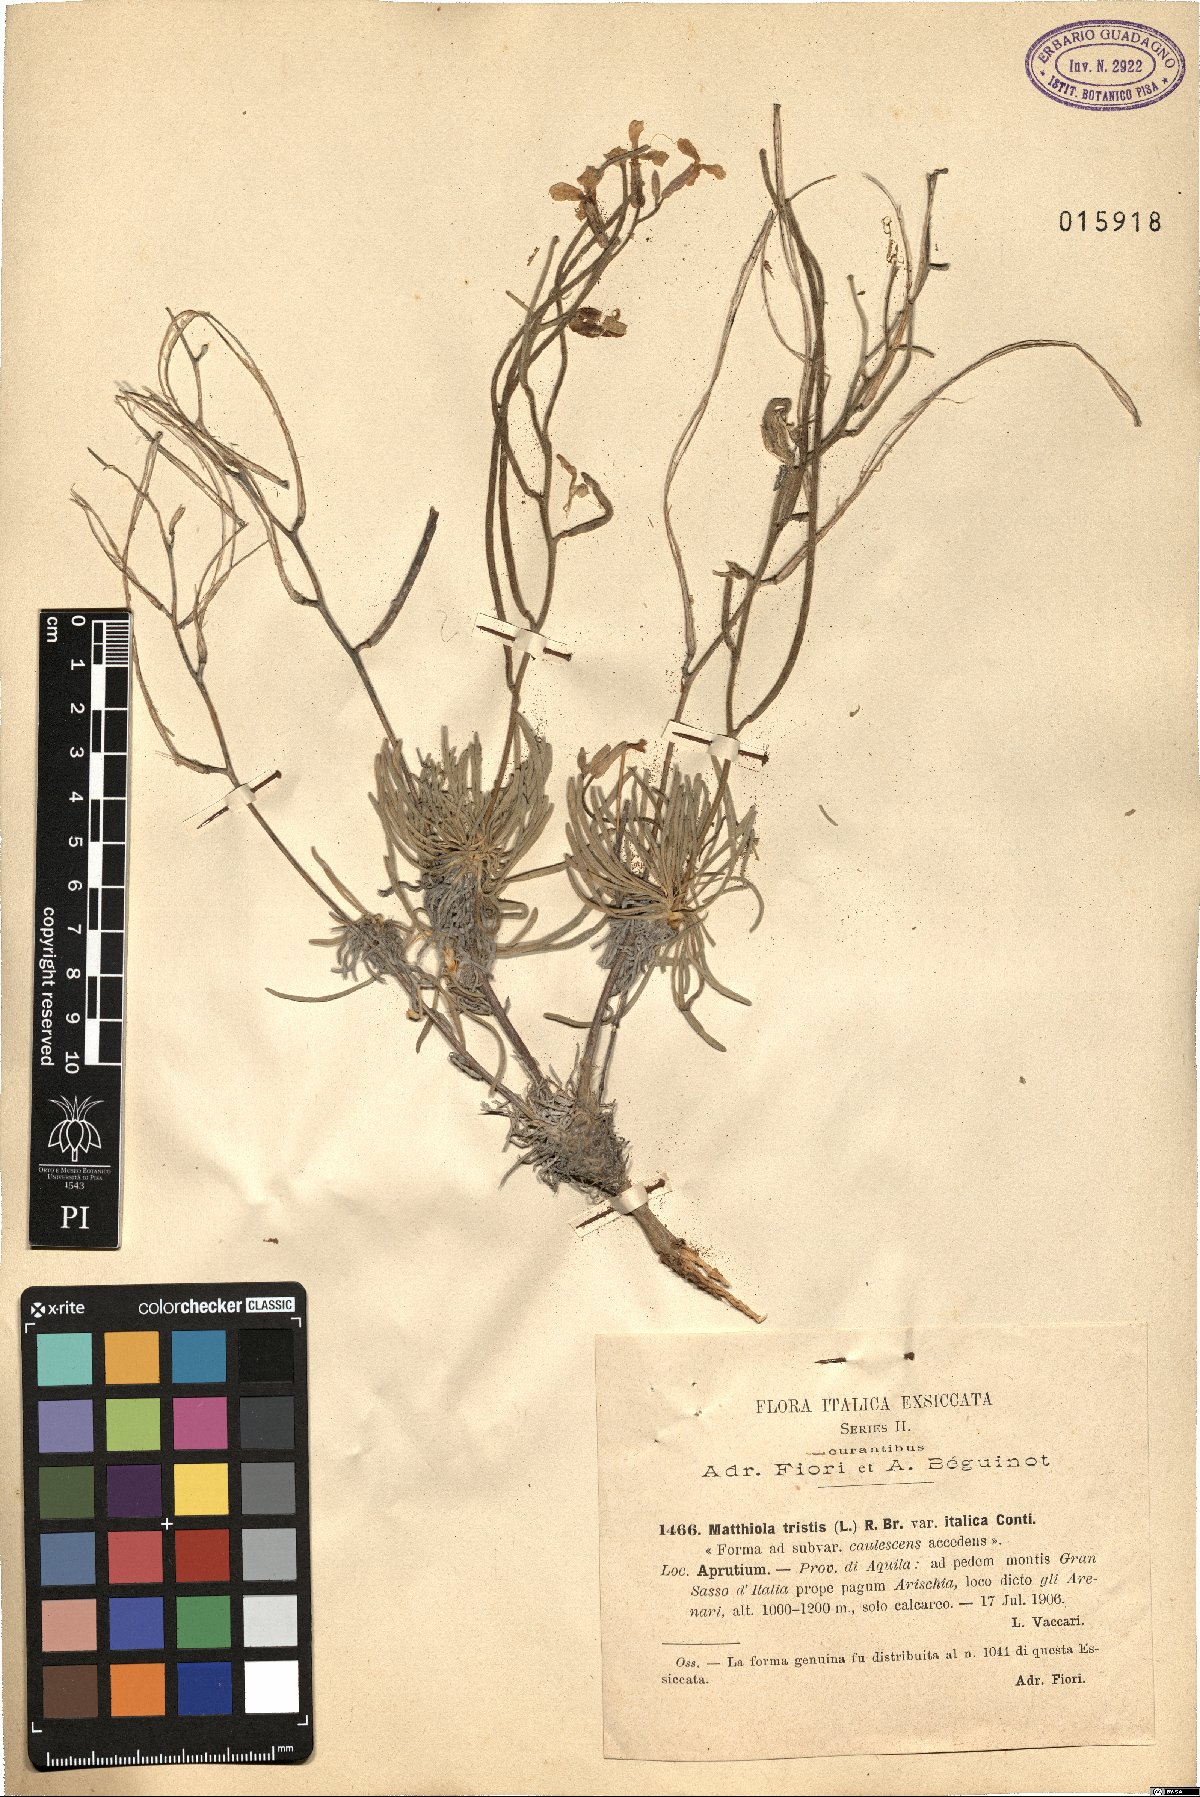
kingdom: Plantae
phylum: Tracheophyta
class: Magnoliopsida
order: Brassicales
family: Brassicaceae
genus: Matthiola
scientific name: Matthiola fruticulosa
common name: Sad stock
